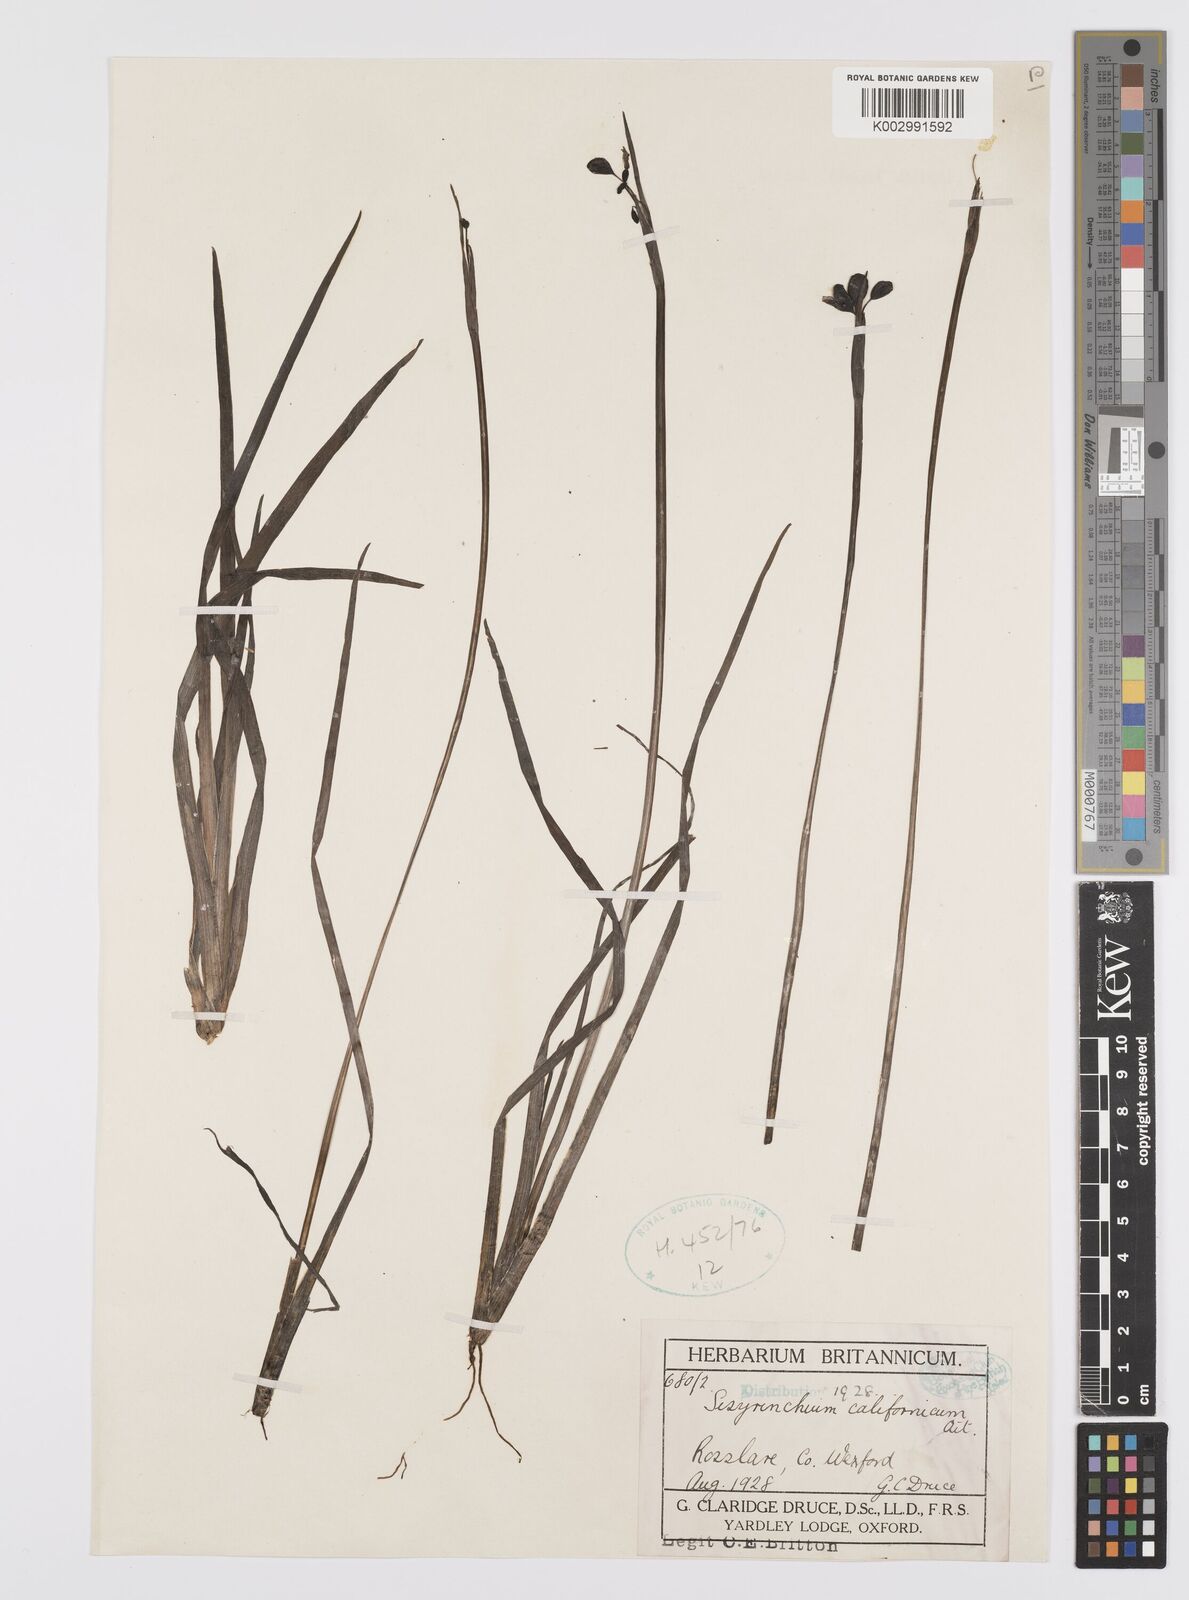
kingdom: Plantae
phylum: Tracheophyta
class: Liliopsida
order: Asparagales
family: Iridaceae
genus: Sisyrinchium
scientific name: Sisyrinchium californicum
